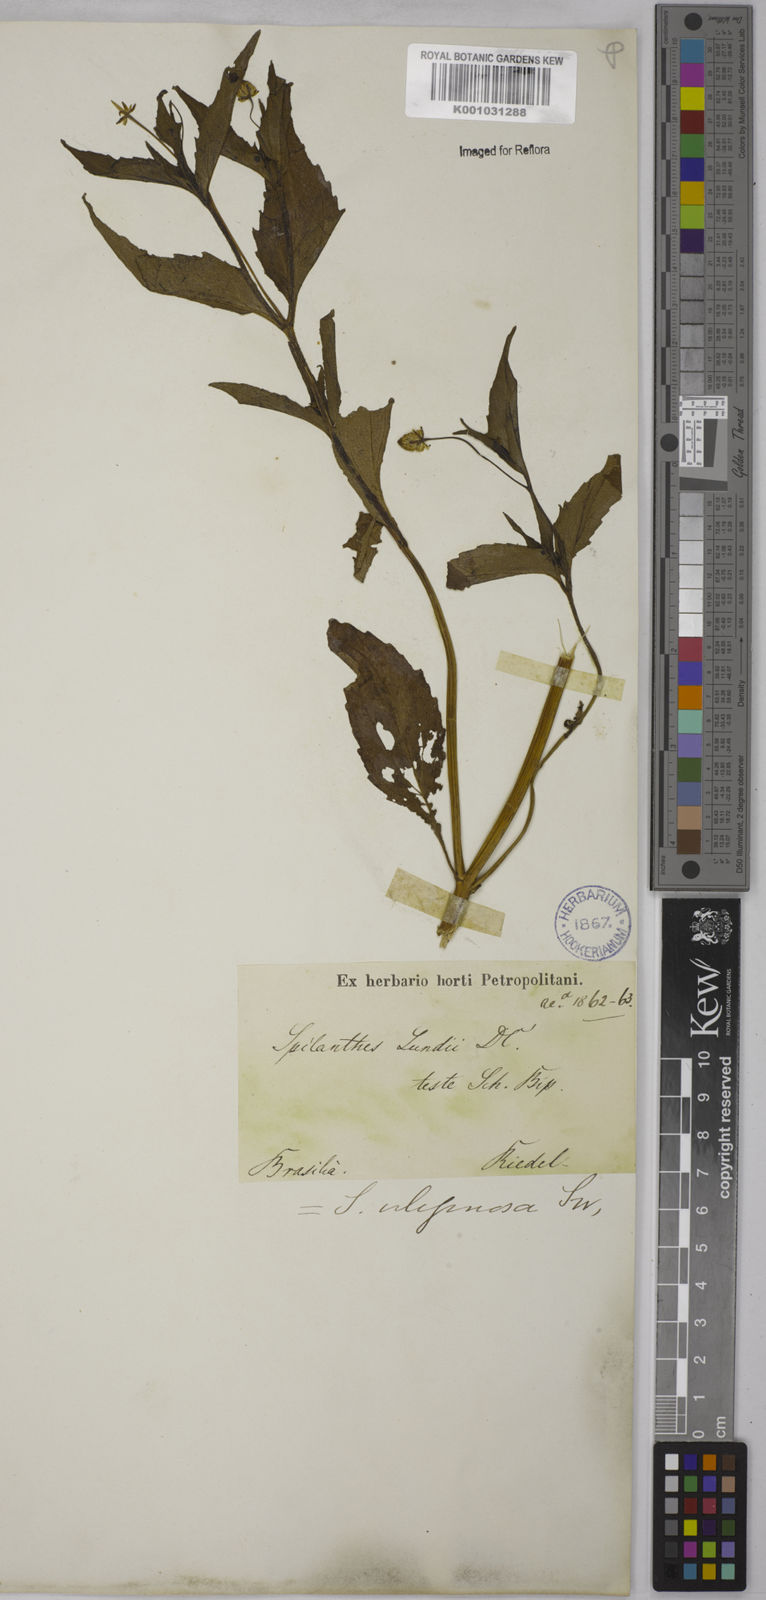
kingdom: Plantae
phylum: Tracheophyta
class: Magnoliopsida
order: Asterales
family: Asteraceae
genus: Acmella
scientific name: Acmella uliginosa
